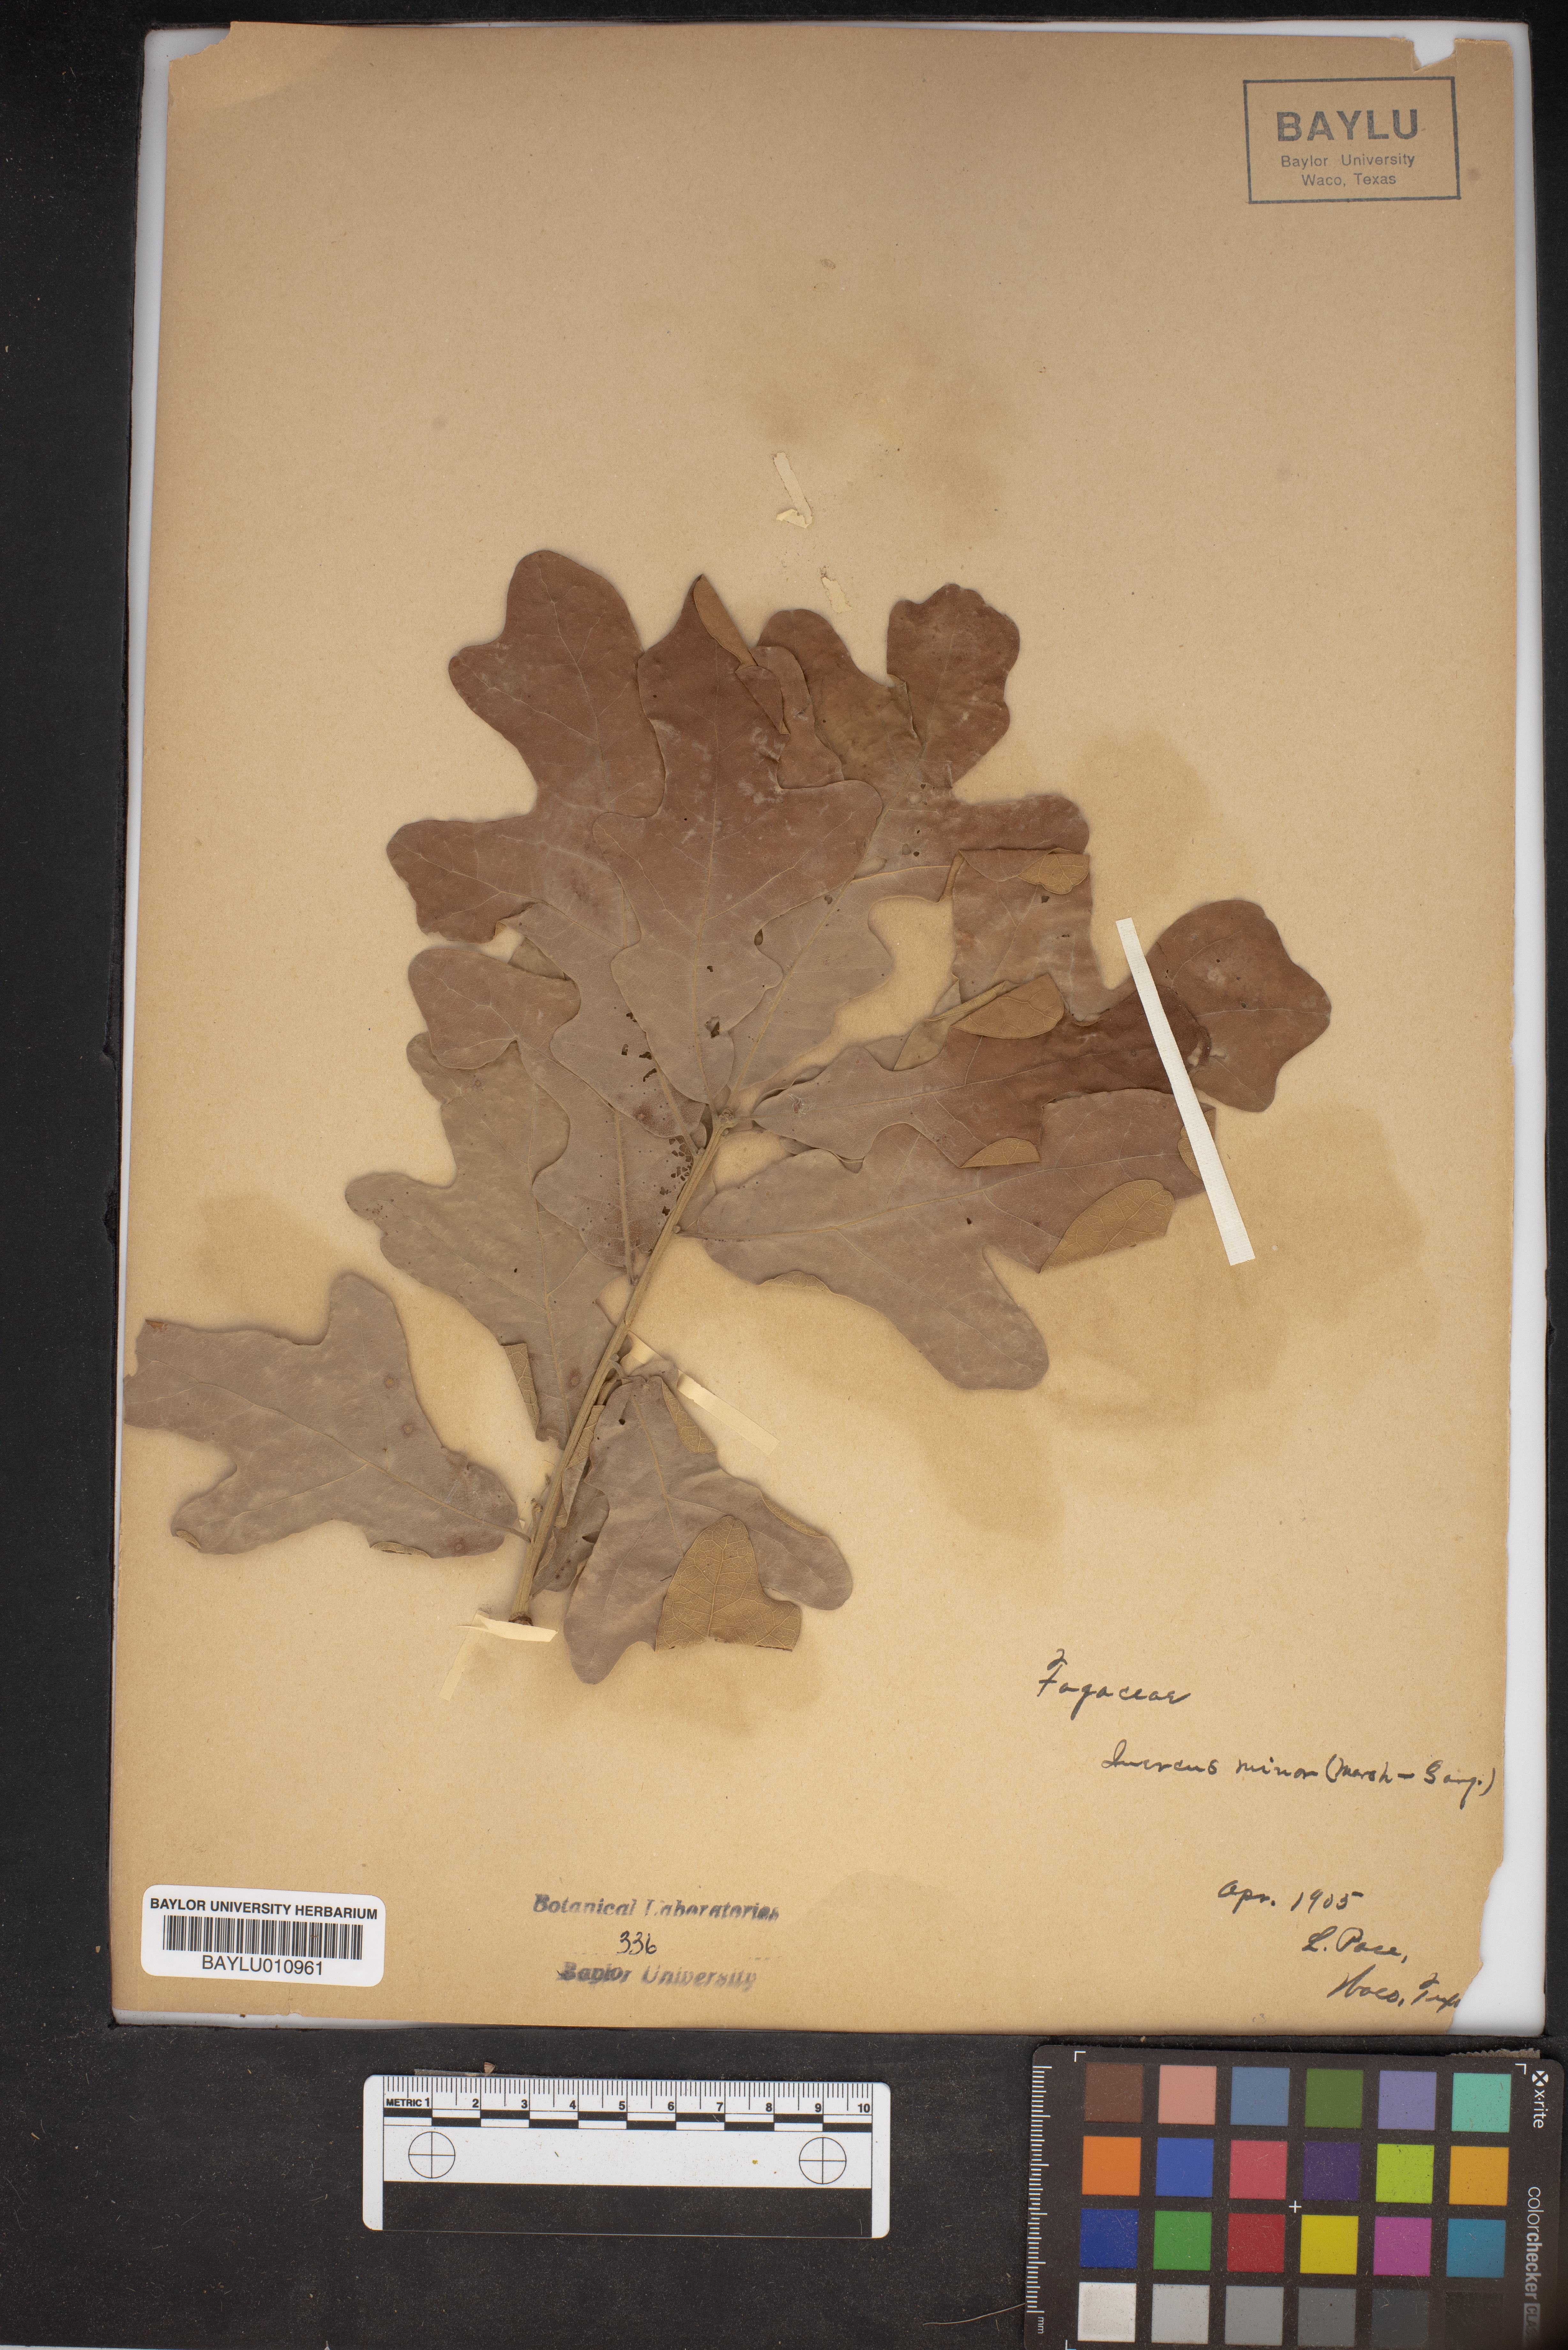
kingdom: Plantae
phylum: Tracheophyta
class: Magnoliopsida
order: Fagales
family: Fagaceae
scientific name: Fagaceae
